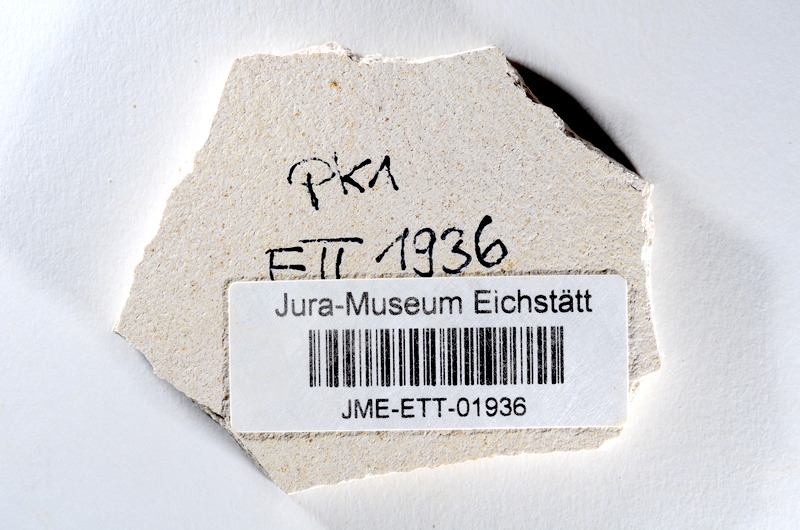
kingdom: Animalia
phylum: Chordata
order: Salmoniformes
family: Orthogonikleithridae
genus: Orthogonikleithrus
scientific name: Orthogonikleithrus hoelli
